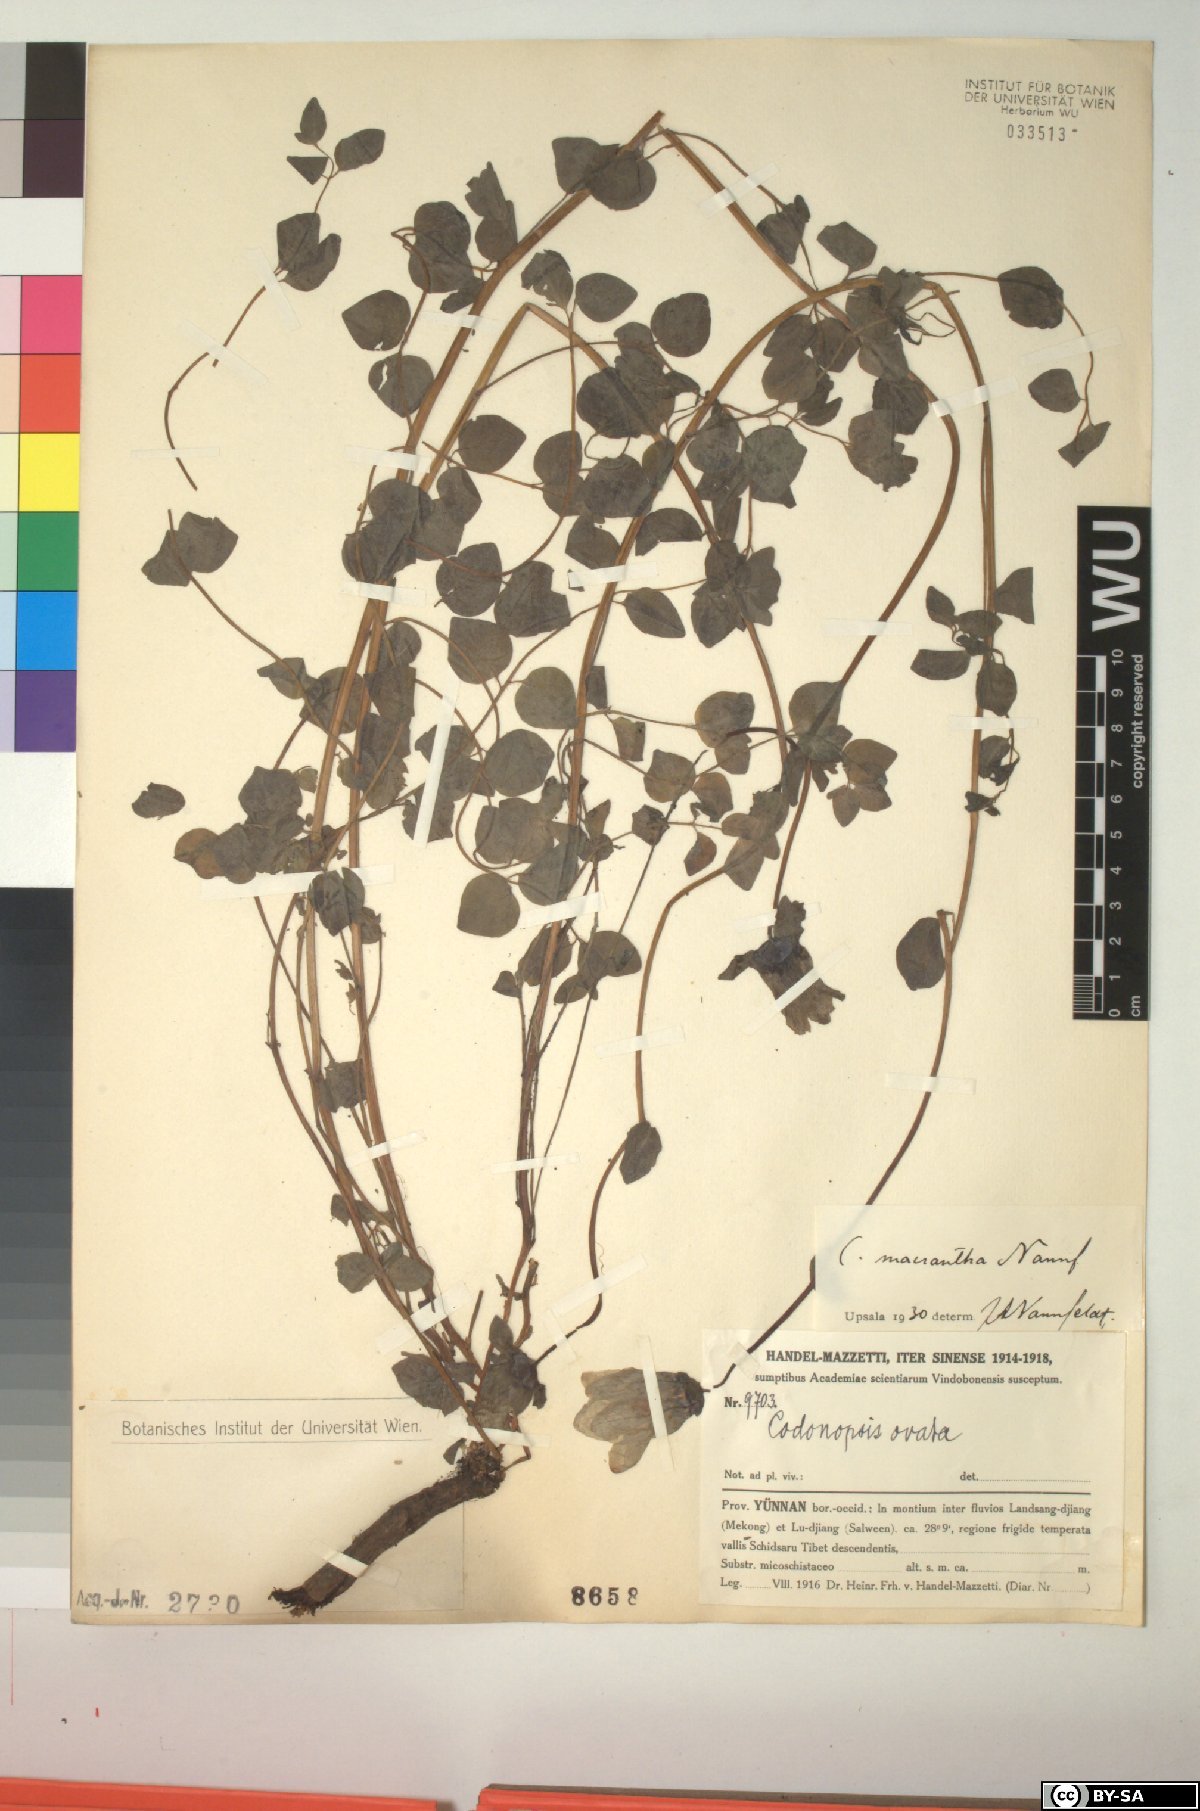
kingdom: Plantae
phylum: Tracheophyta
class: Magnoliopsida
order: Asterales
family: Campanulaceae
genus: Codonopsis
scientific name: Codonopsis foetens
